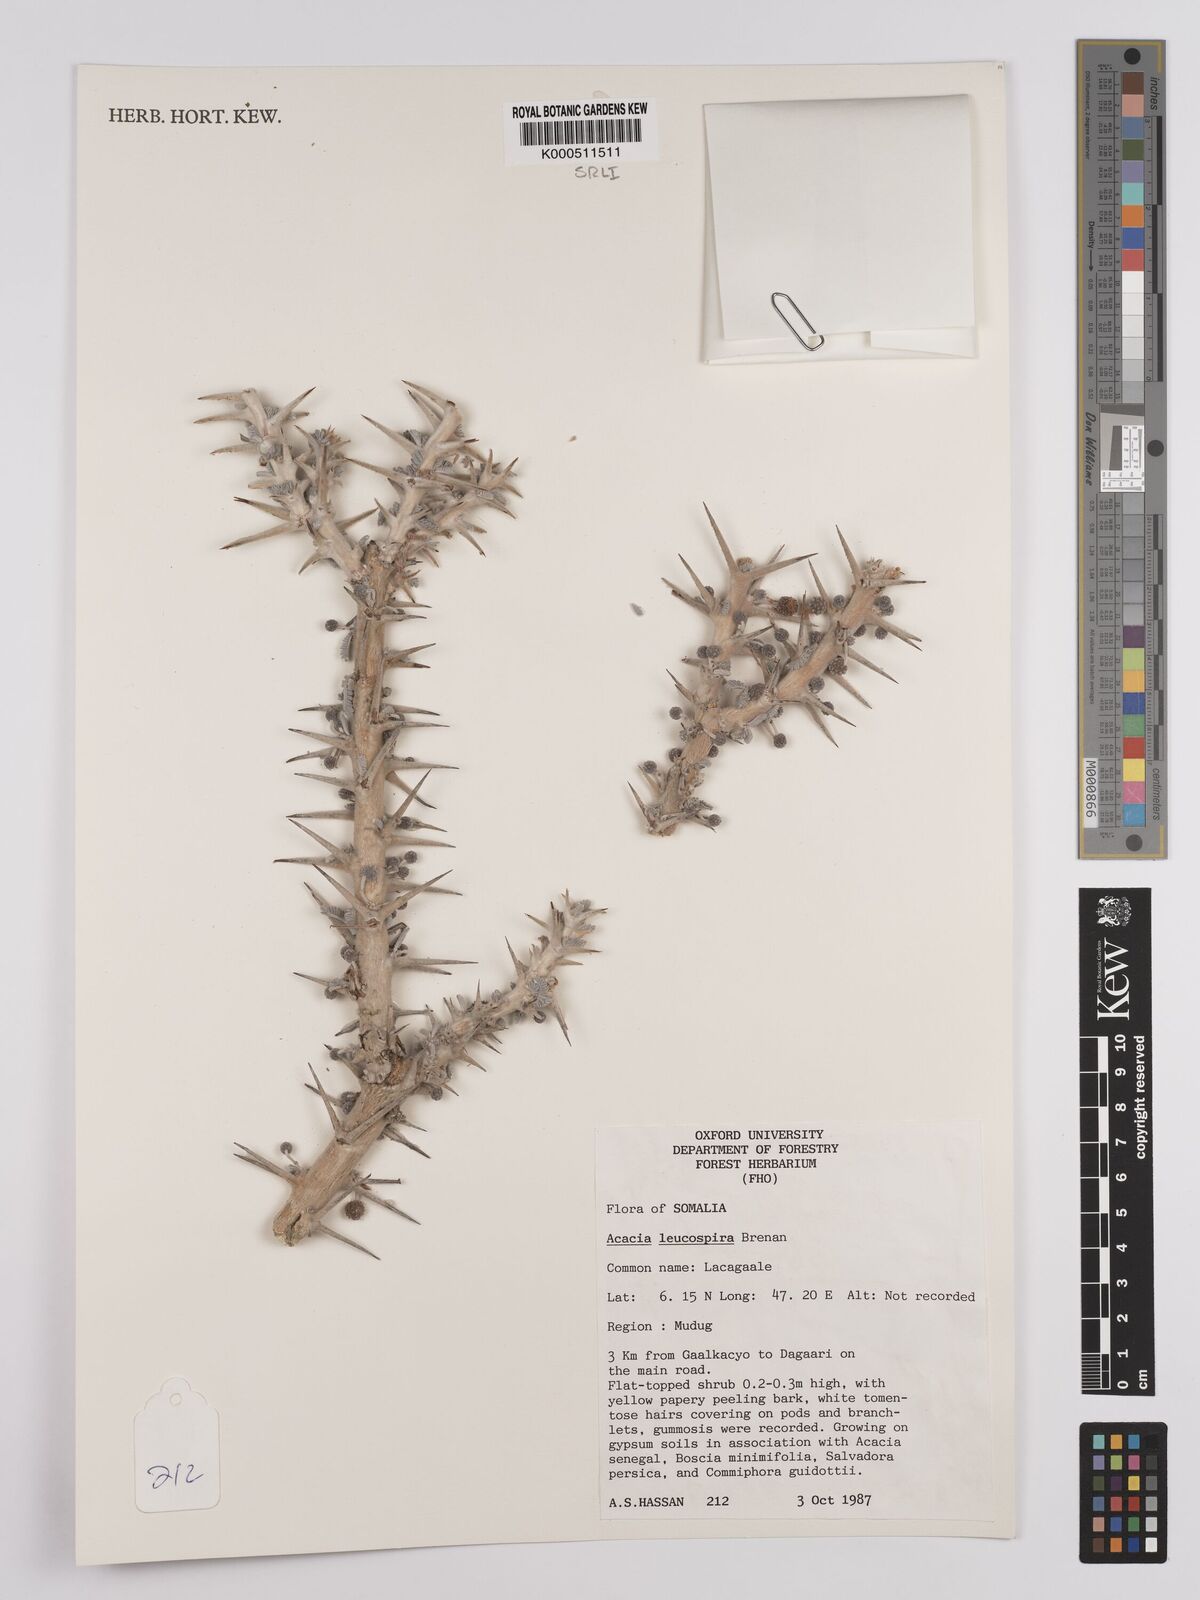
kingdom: Plantae
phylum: Tracheophyta
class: Magnoliopsida
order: Fabales
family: Fabaceae
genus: Vachellia
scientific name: Vachellia leucospira
